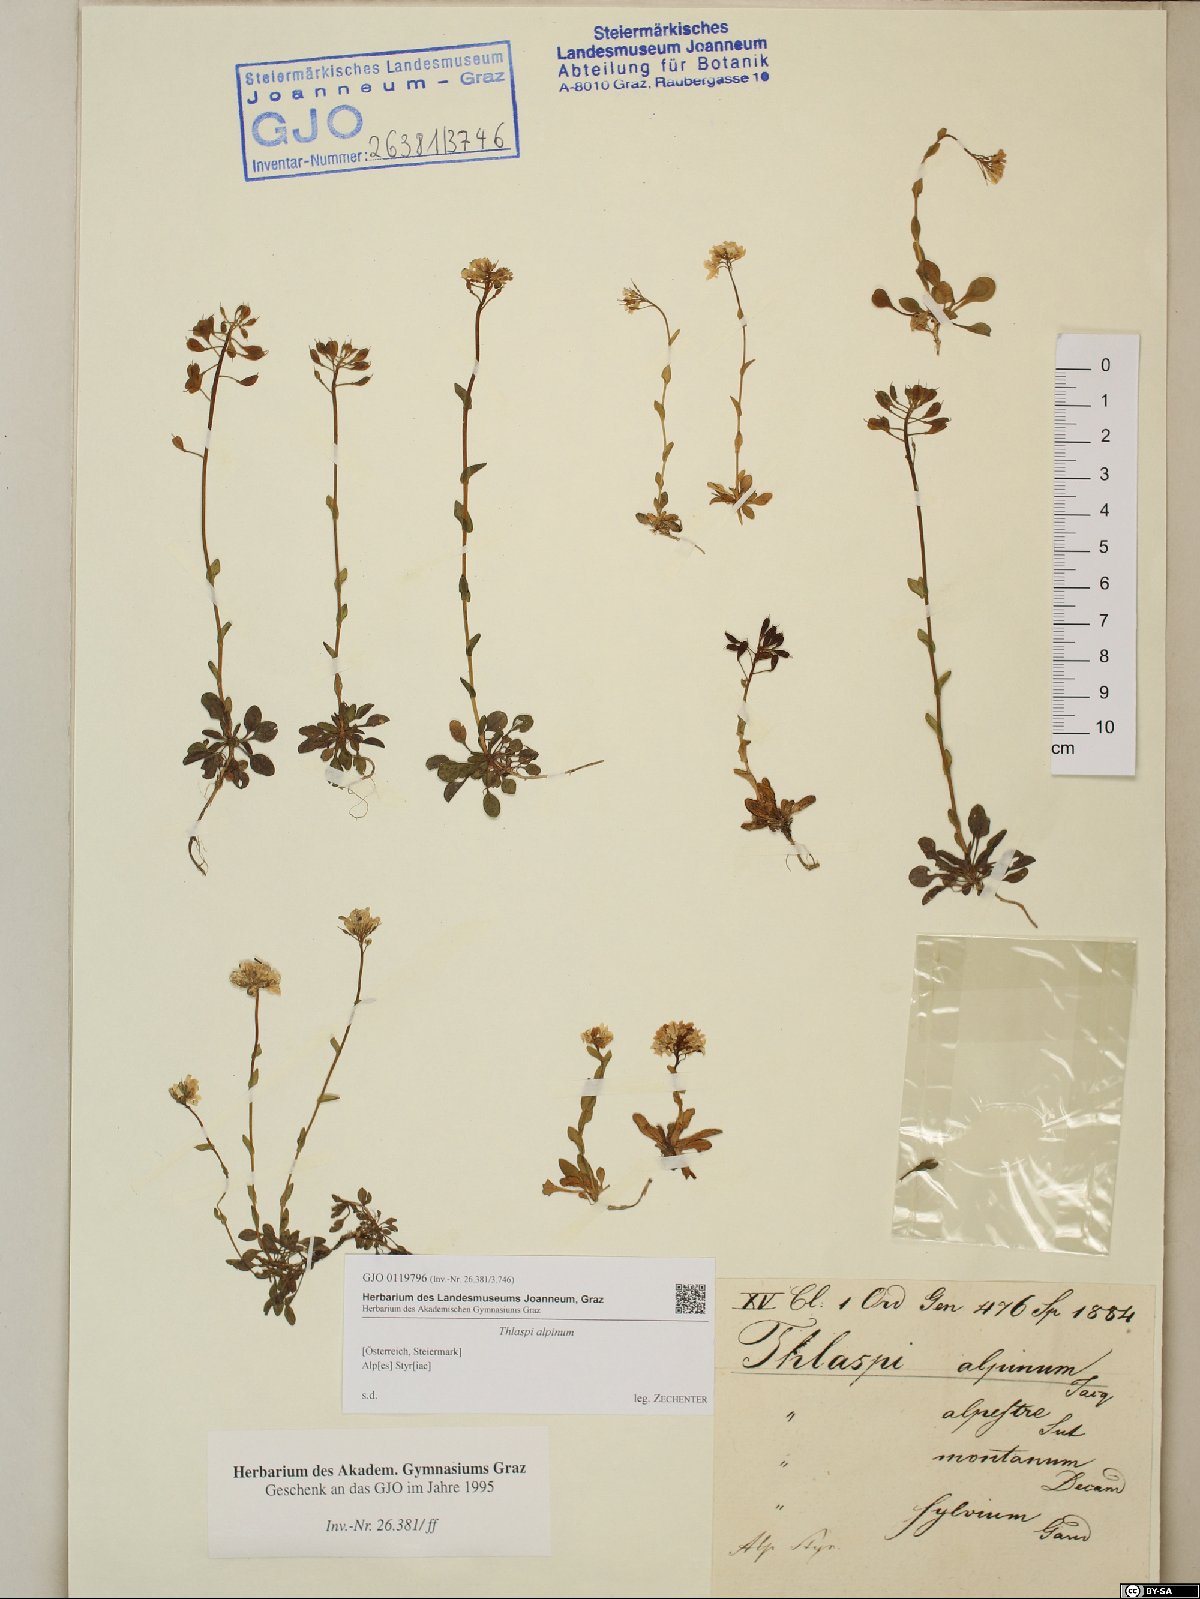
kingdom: Plantae
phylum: Tracheophyta
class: Magnoliopsida
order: Brassicales
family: Brassicaceae
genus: Noccaea
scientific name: Noccaea alpestris
